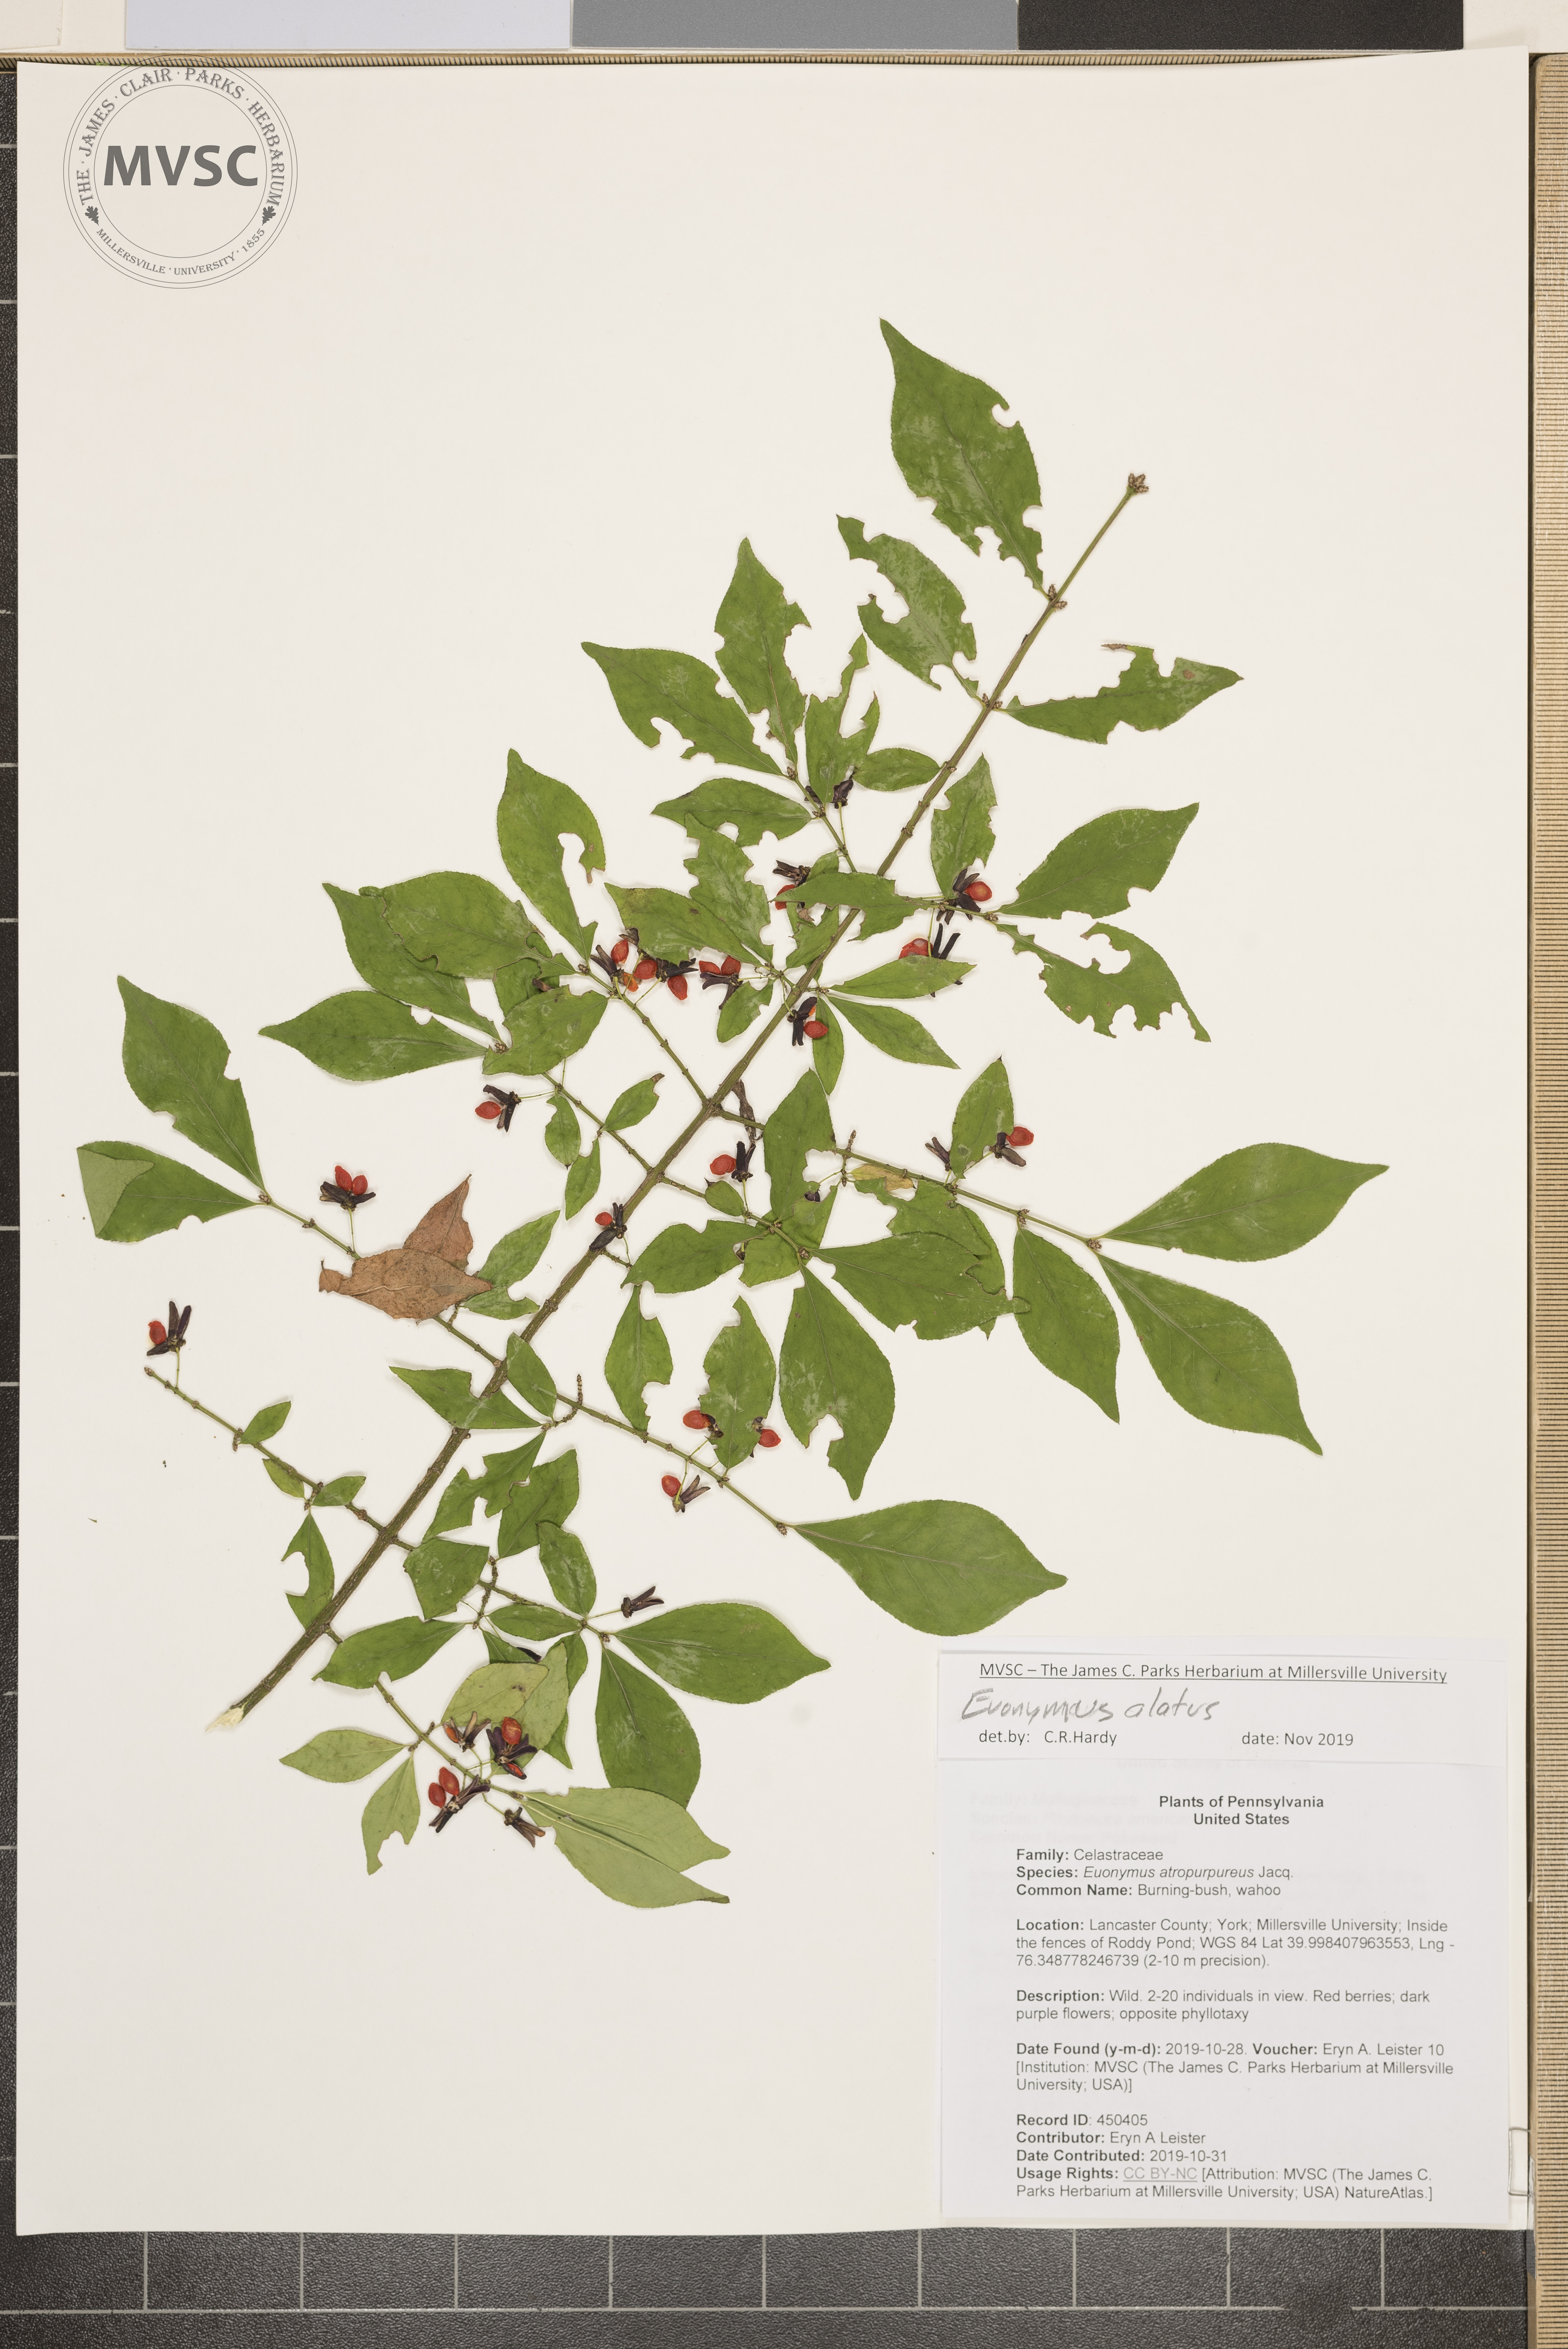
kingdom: Plantae
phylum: Tracheophyta
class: Magnoliopsida
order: Celastrales
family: Celastraceae
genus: Euonymus
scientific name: Euonymus alatus
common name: Burning-bush
